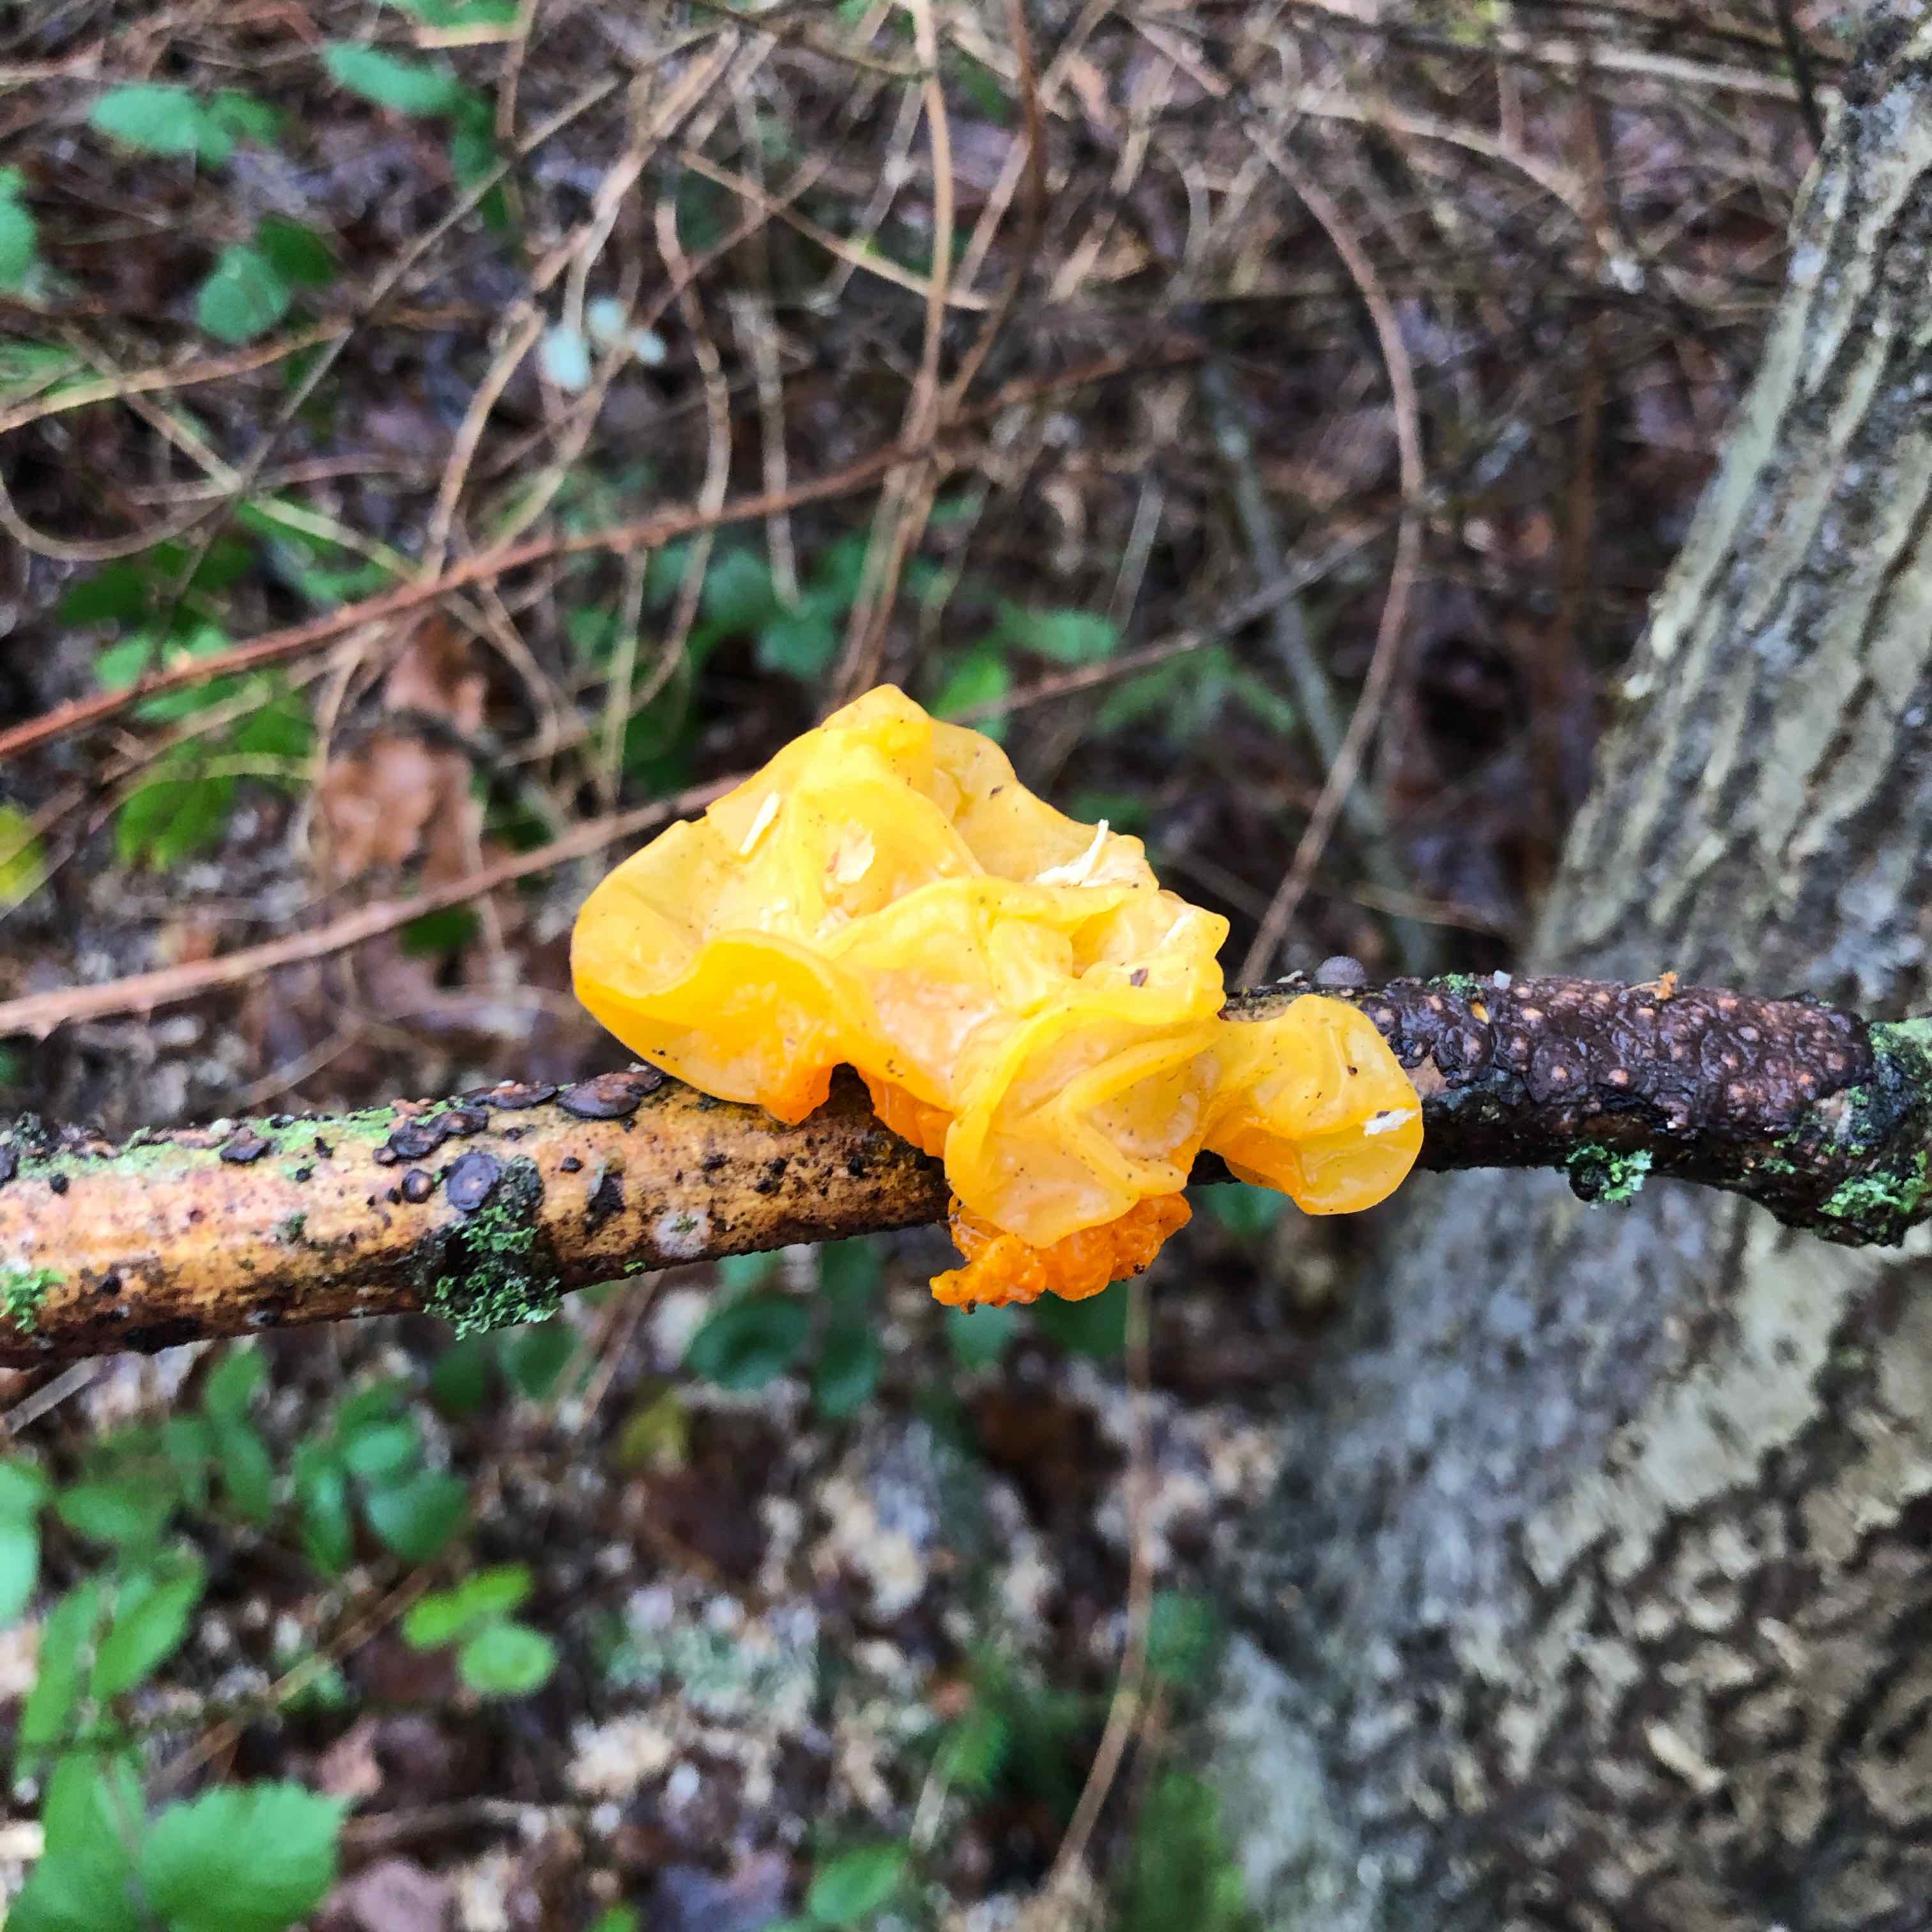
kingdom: Fungi
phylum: Basidiomycota
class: Tremellomycetes
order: Tremellales
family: Tremellaceae
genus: Tremella
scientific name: Tremella mesenterica
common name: gul bævresvamp
